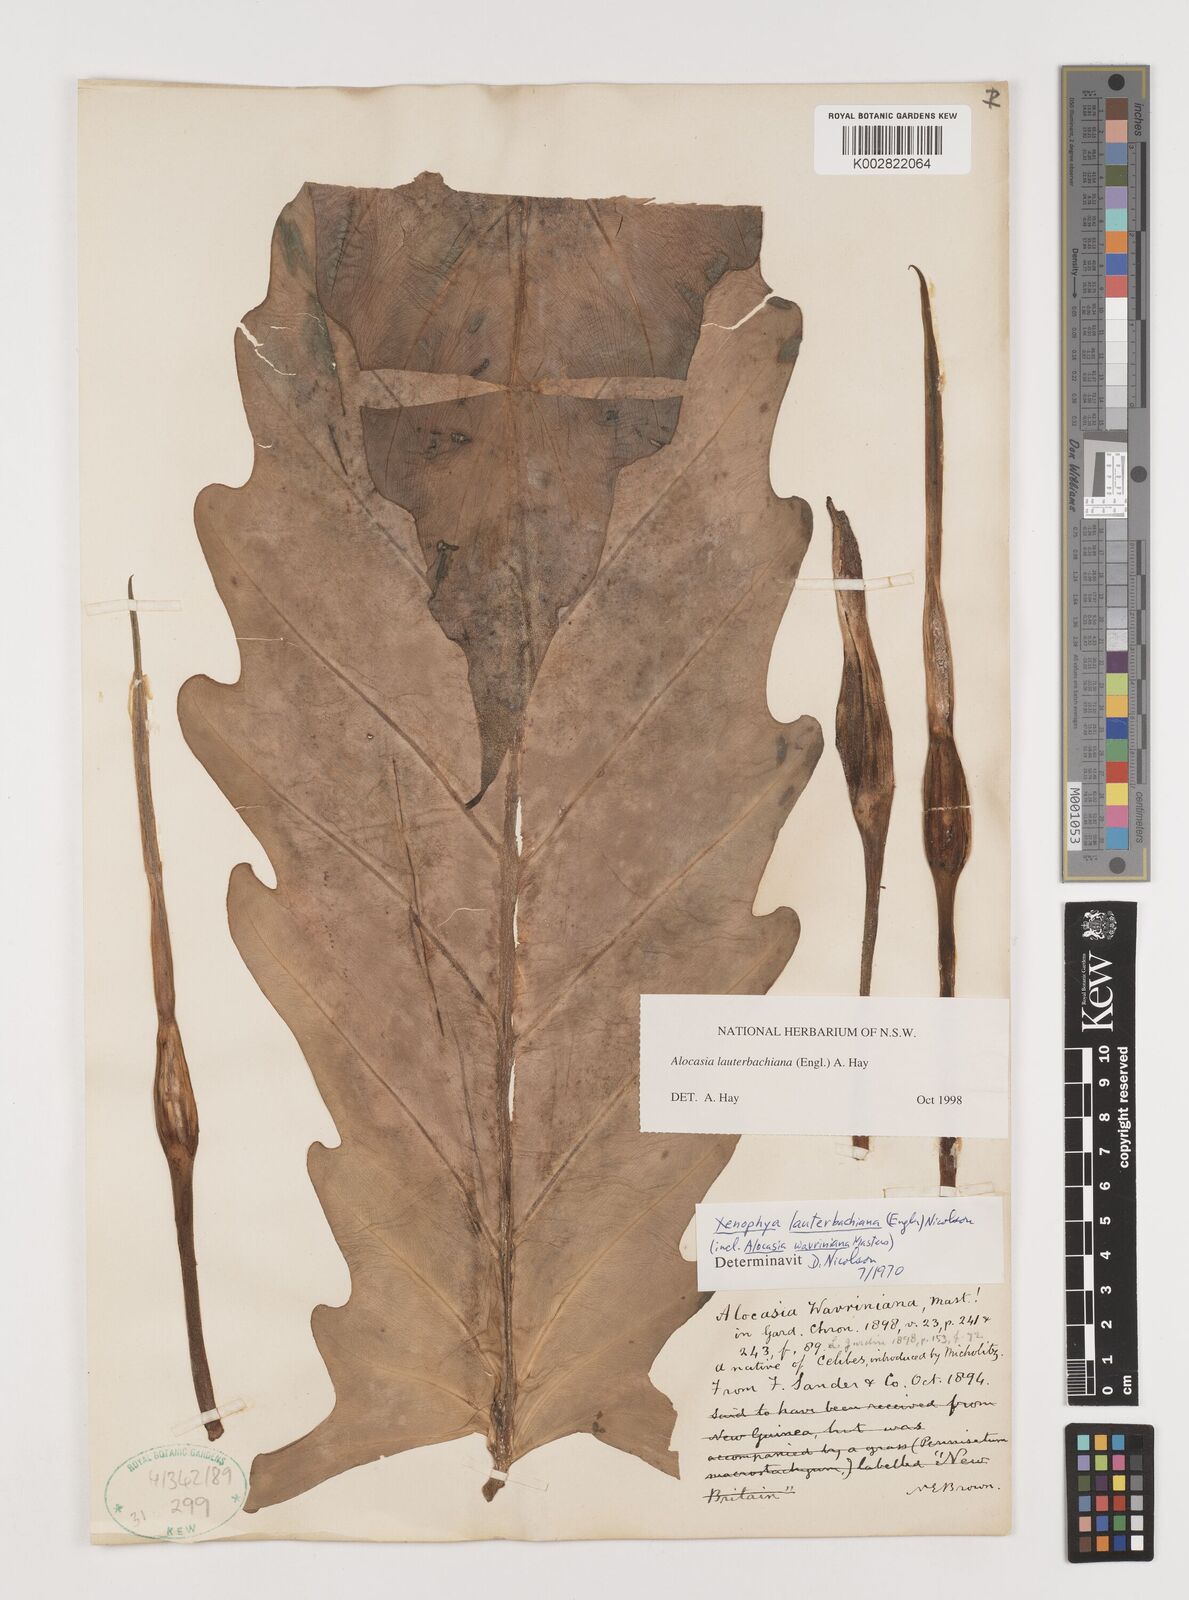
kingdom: Plantae
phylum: Tracheophyta
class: Liliopsida
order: Alismatales
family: Araceae
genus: Alocasia
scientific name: Alocasia lauterbachiana
